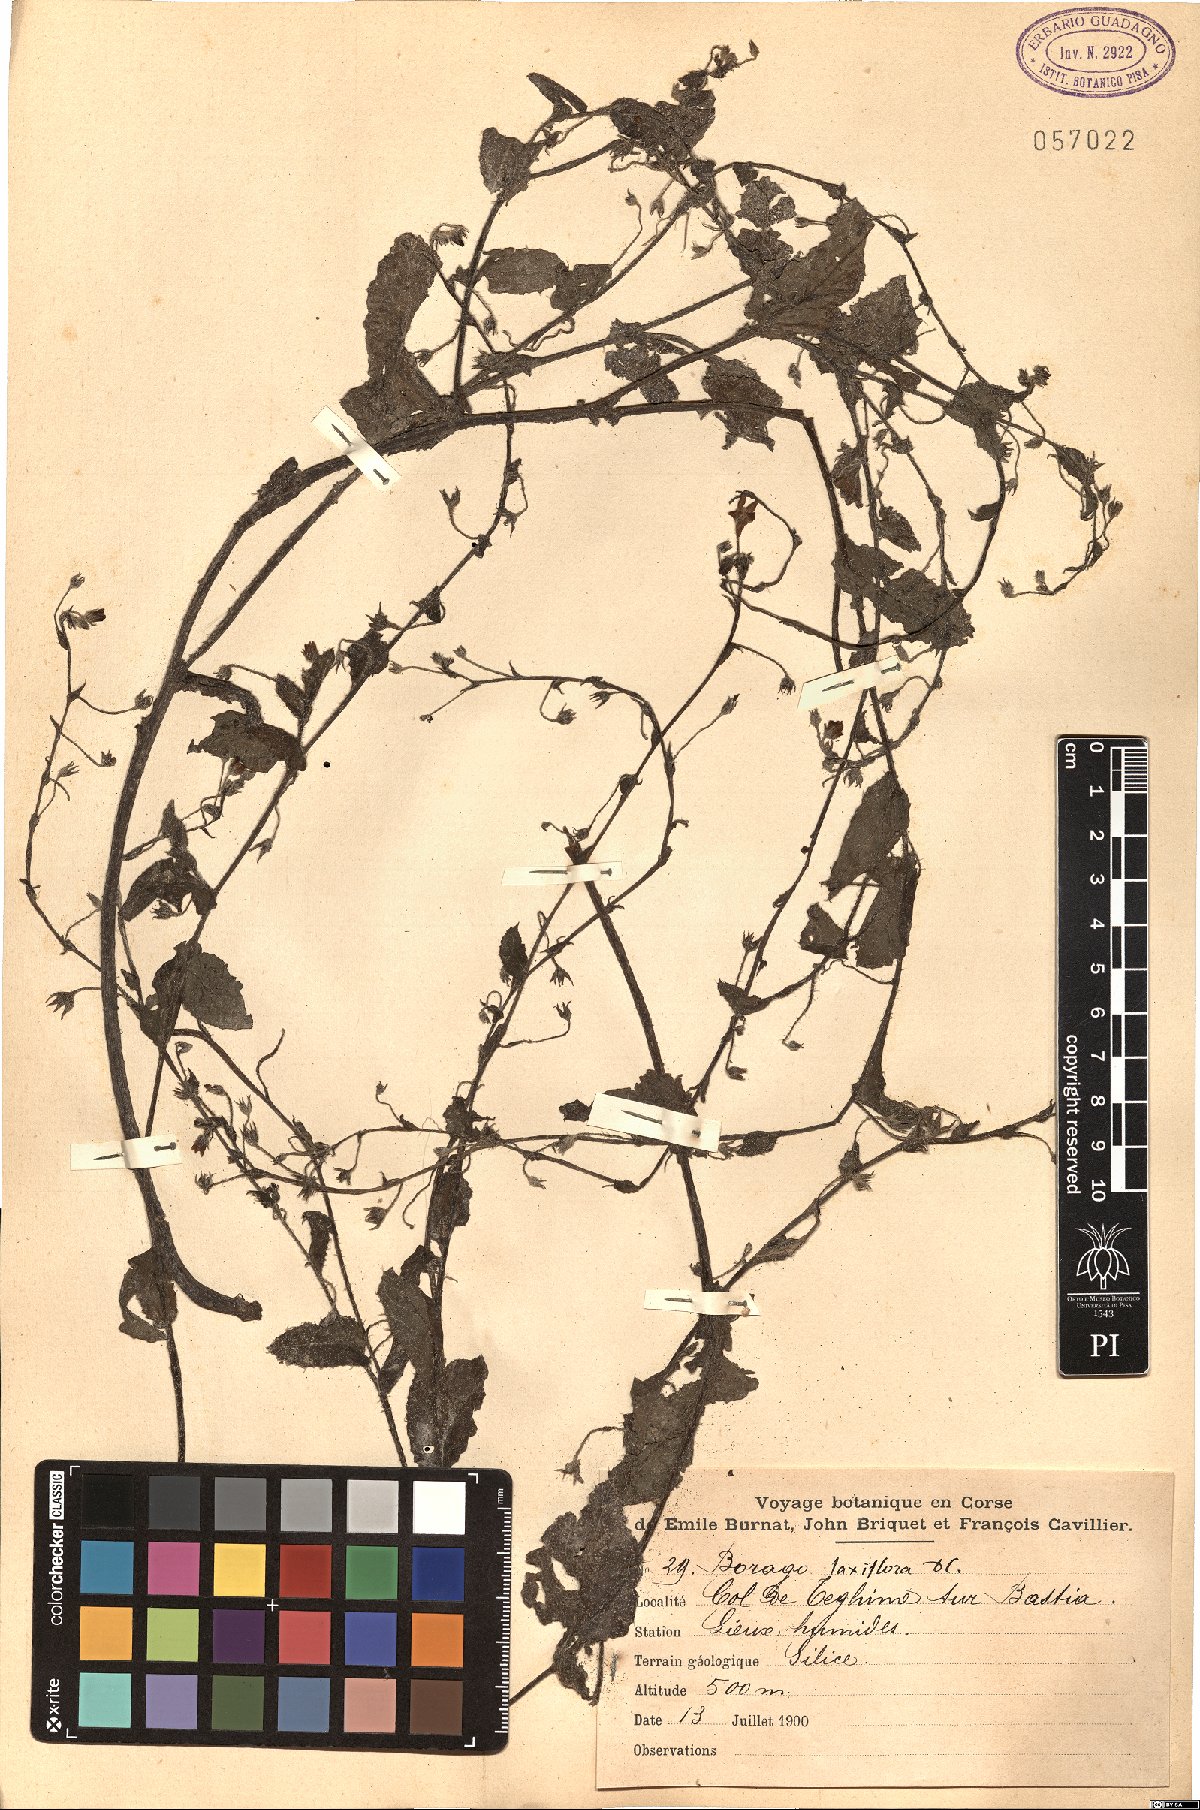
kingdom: Plantae
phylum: Tracheophyta
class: Magnoliopsida
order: Boraginales
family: Boraginaceae
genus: Borago
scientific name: Borago pygmaea
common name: Slender borage
